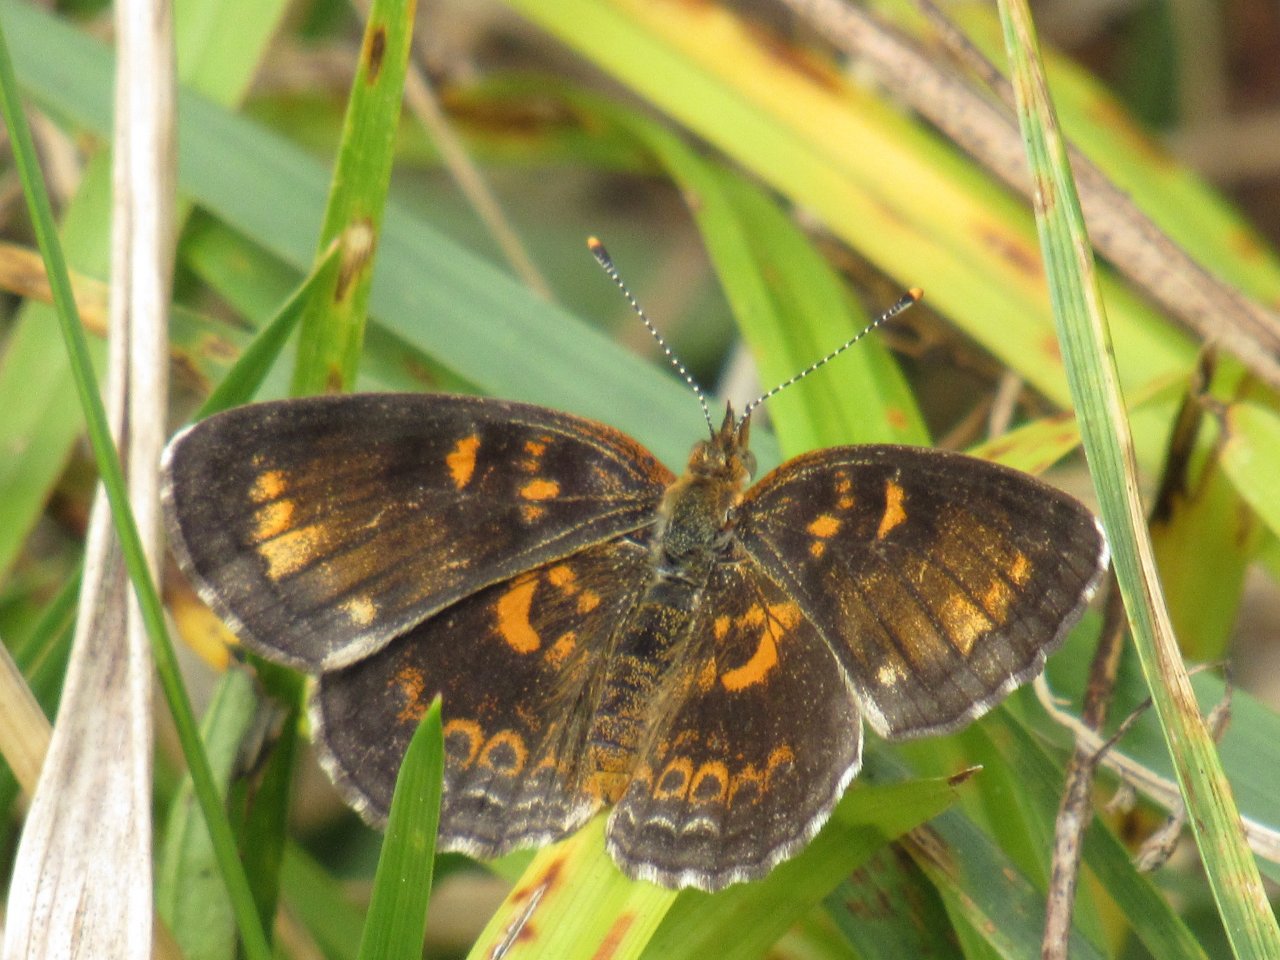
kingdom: Animalia
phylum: Arthropoda
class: Insecta
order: Lepidoptera
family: Nymphalidae
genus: Phyciodes
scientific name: Phyciodes tharos
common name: Pearl Crescent
